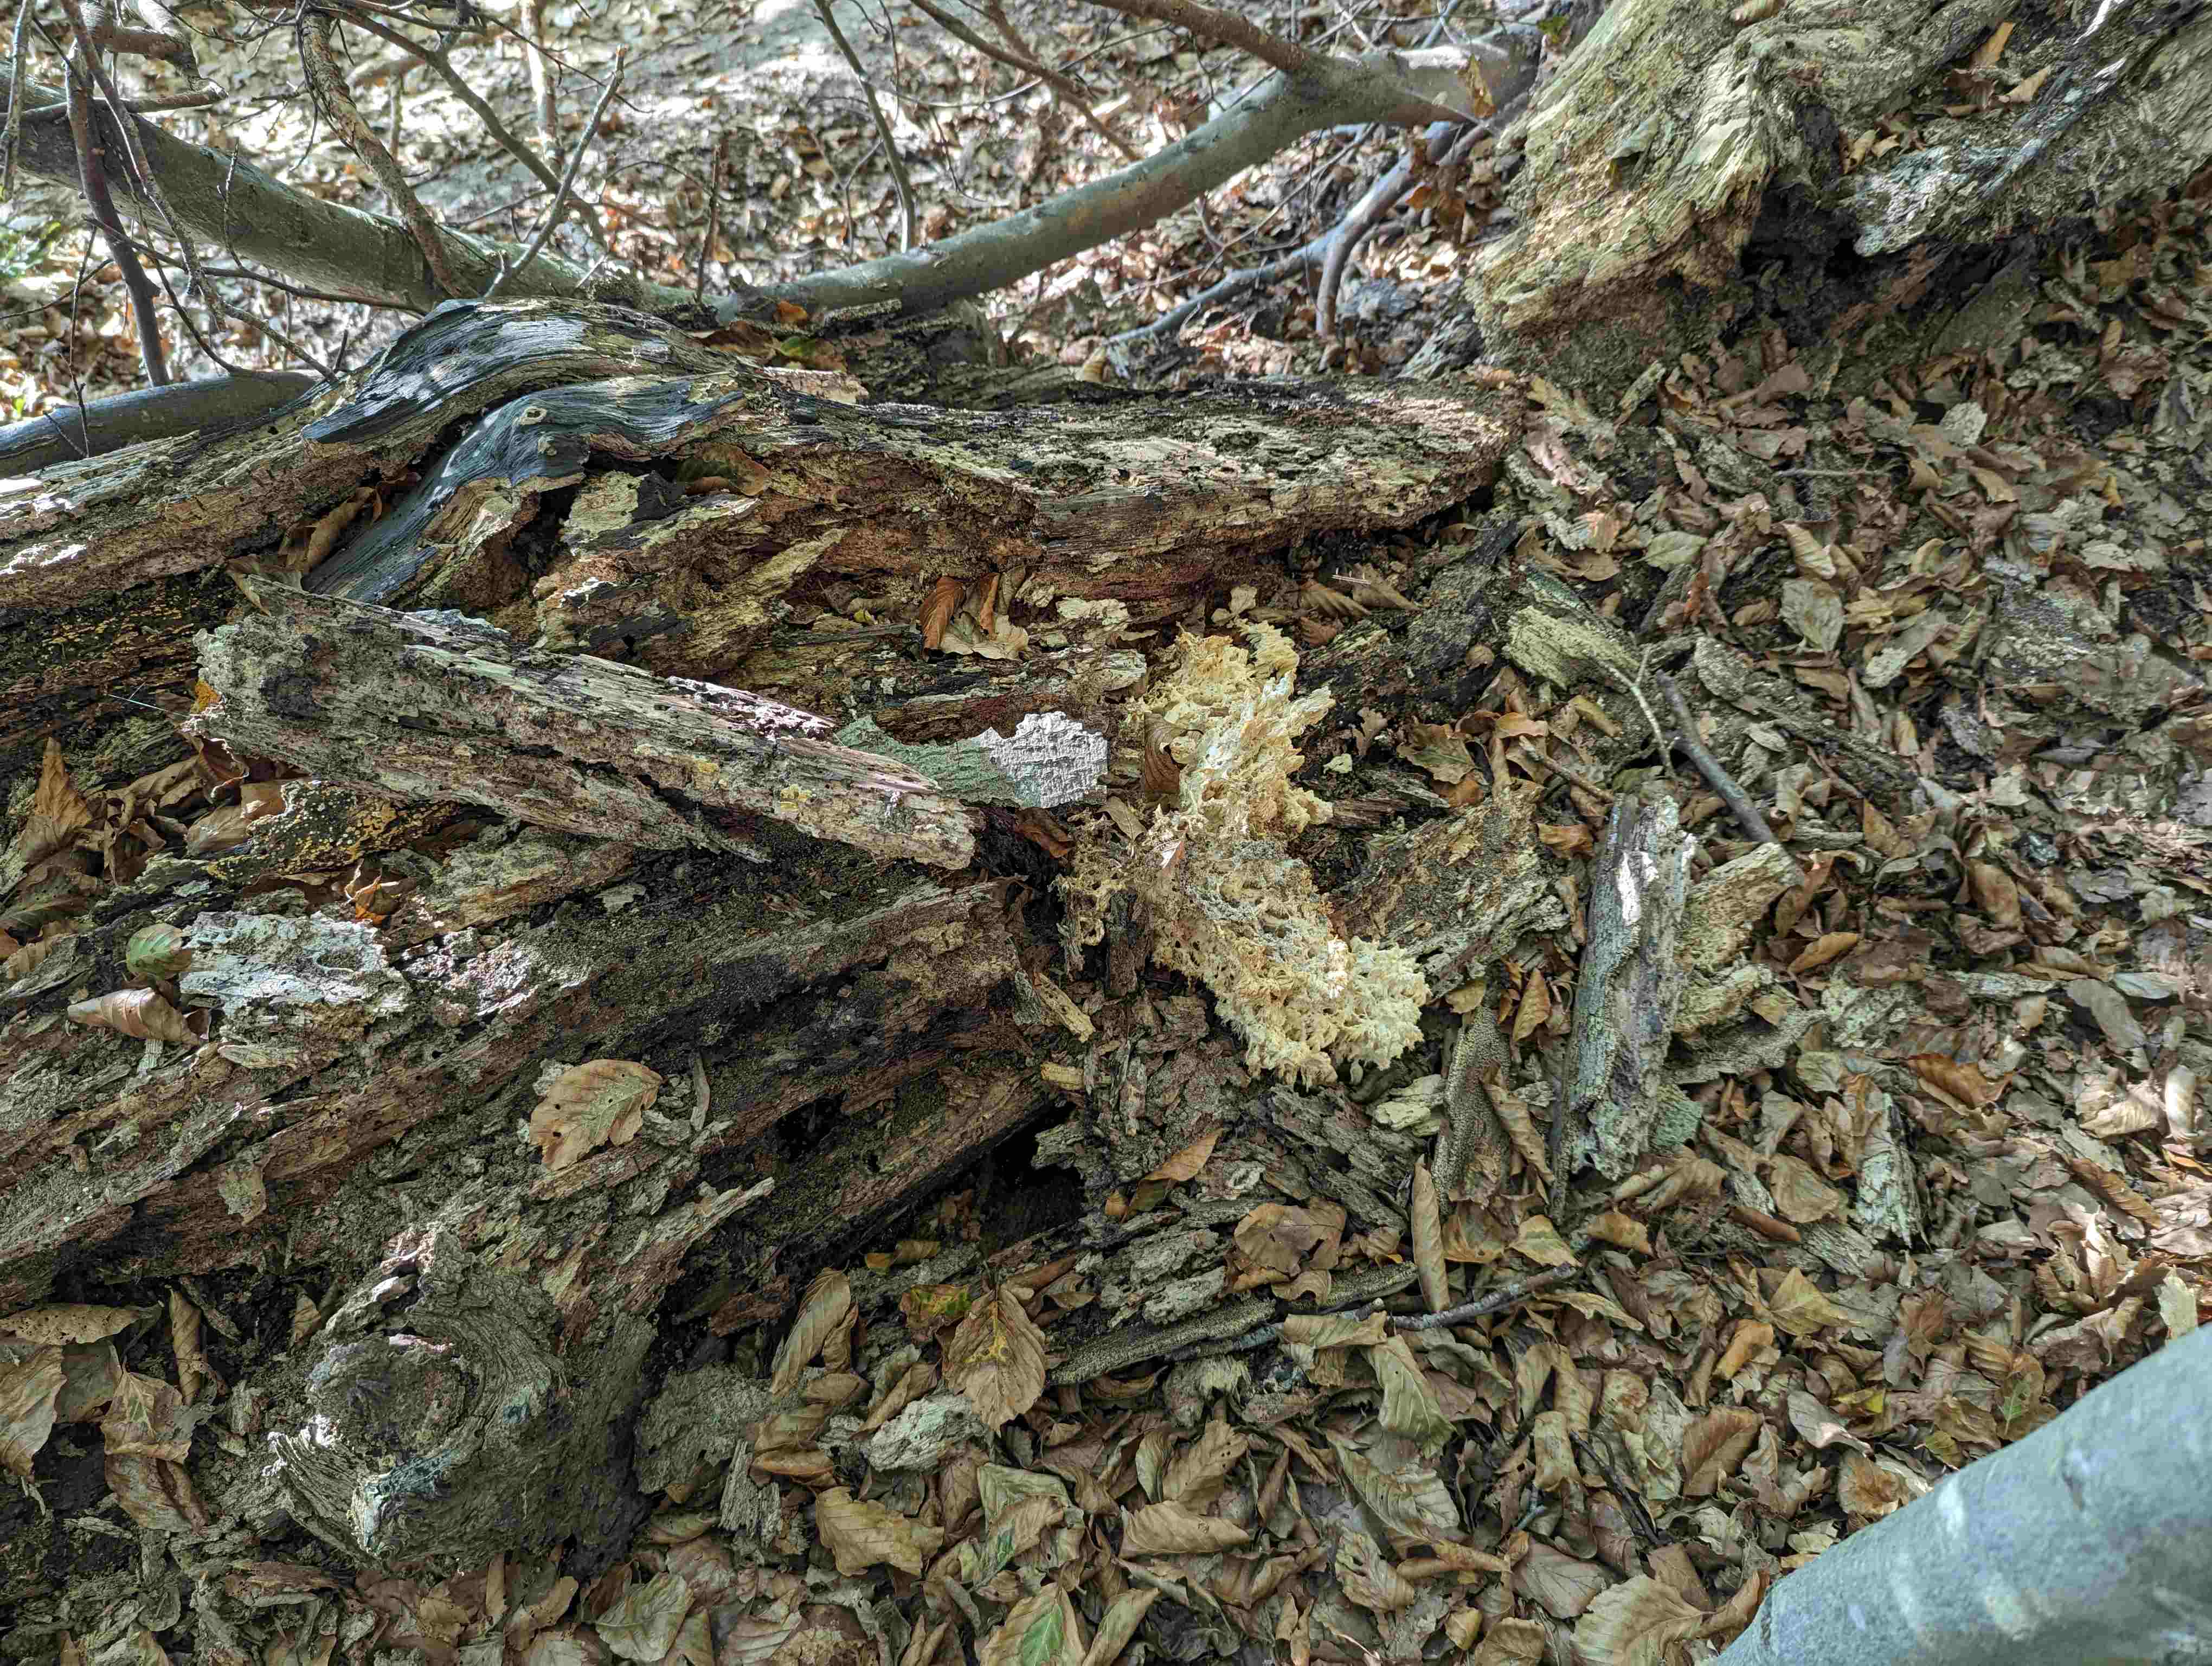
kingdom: Fungi
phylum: Basidiomycota
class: Agaricomycetes
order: Russulales
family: Hericiaceae
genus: Hericium
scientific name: Hericium coralloides
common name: koralpigsvamp
